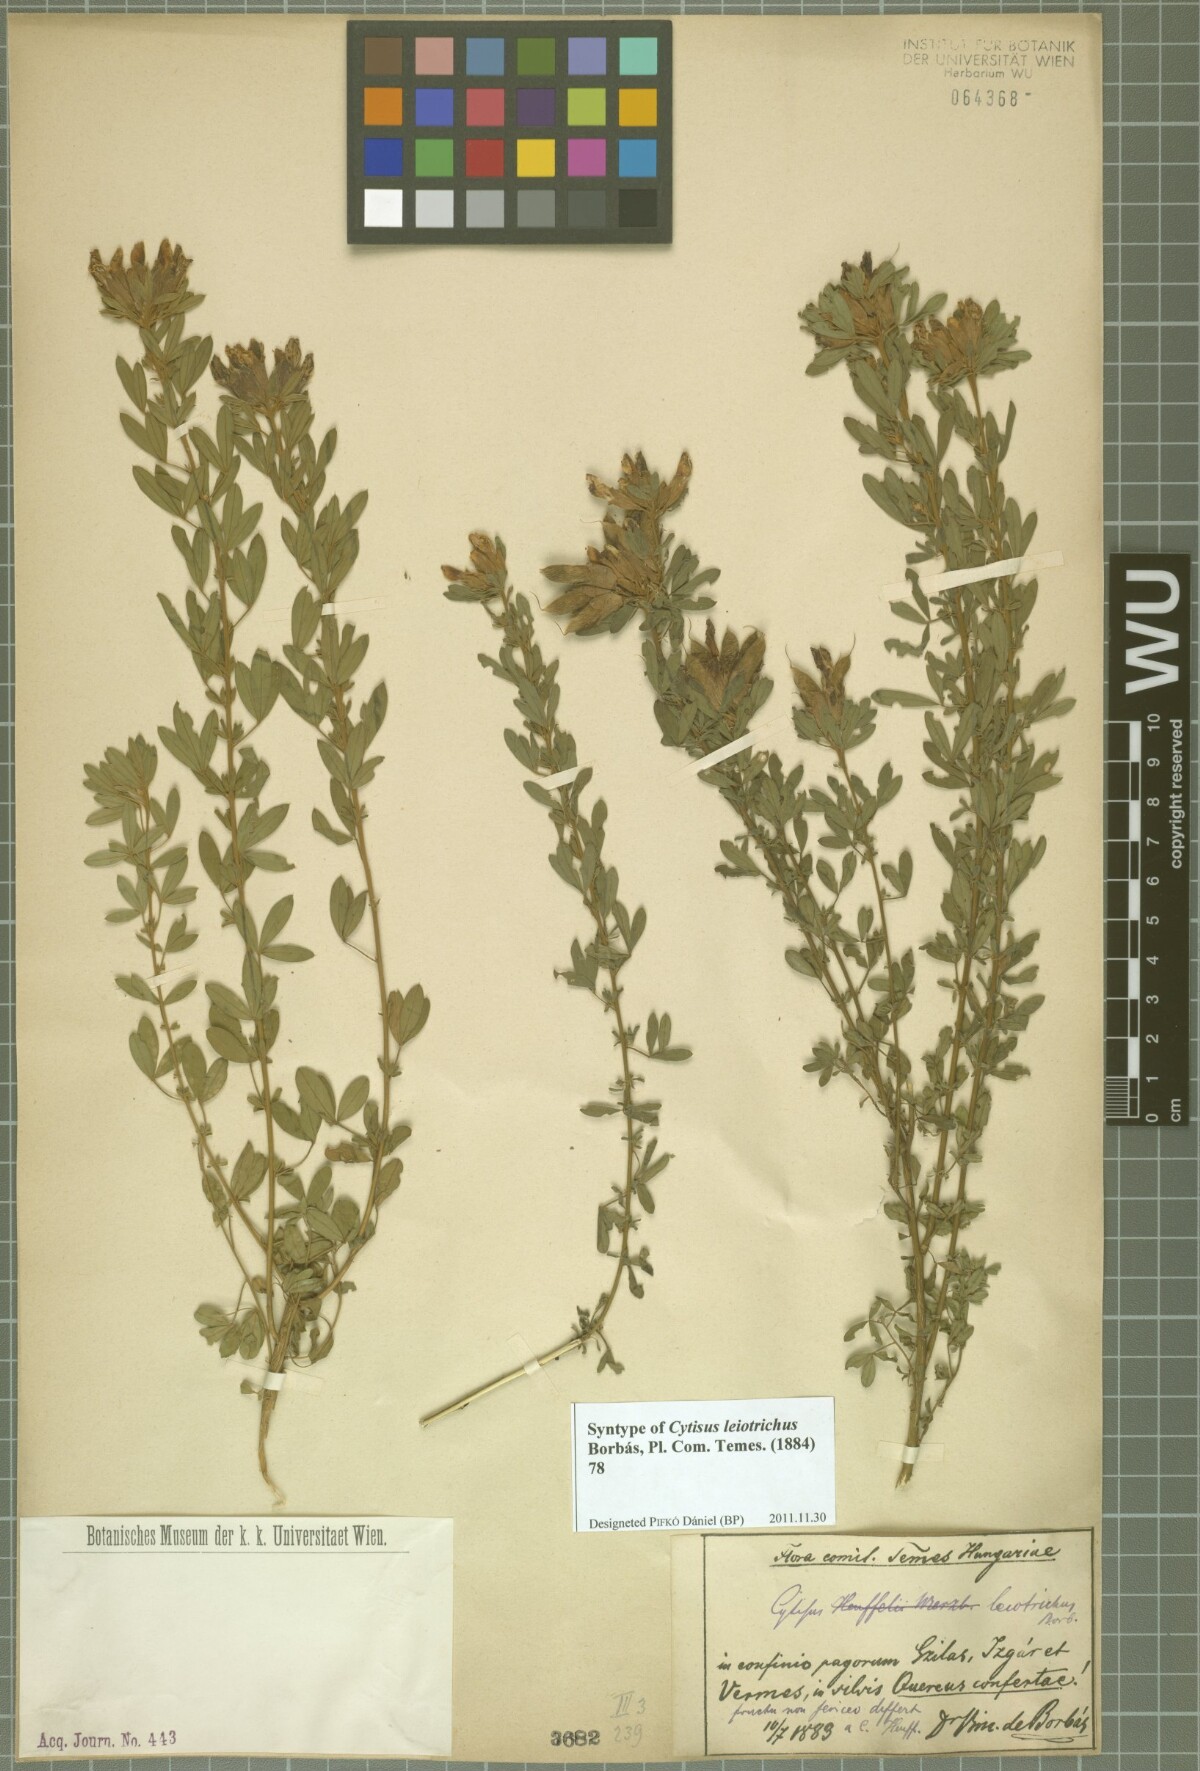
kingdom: Plantae
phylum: Tracheophyta
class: Magnoliopsida
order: Fabales
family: Fabaceae
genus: Chamaecytisus
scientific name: Chamaecytisus austriacus
